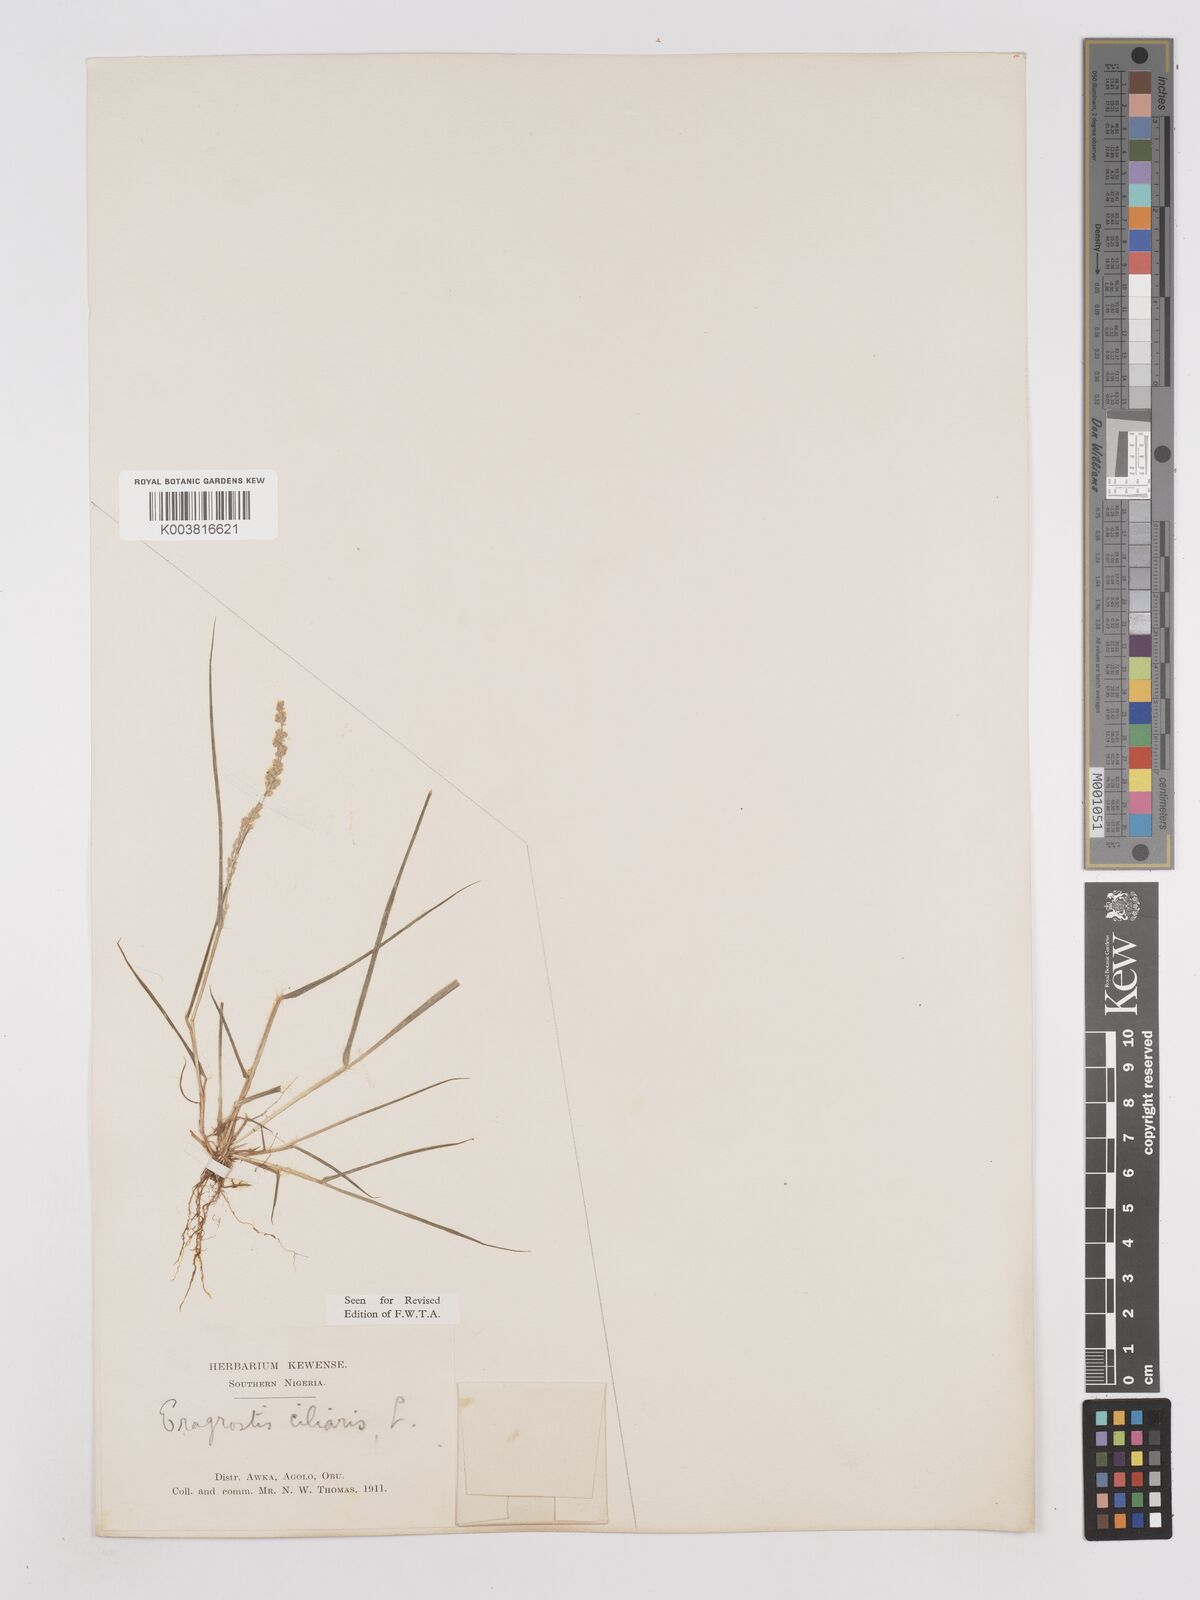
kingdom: Plantae
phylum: Tracheophyta
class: Liliopsida
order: Poales
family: Poaceae
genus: Eragrostis
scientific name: Eragrostis ciliaris
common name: Gophertail lovegrass
